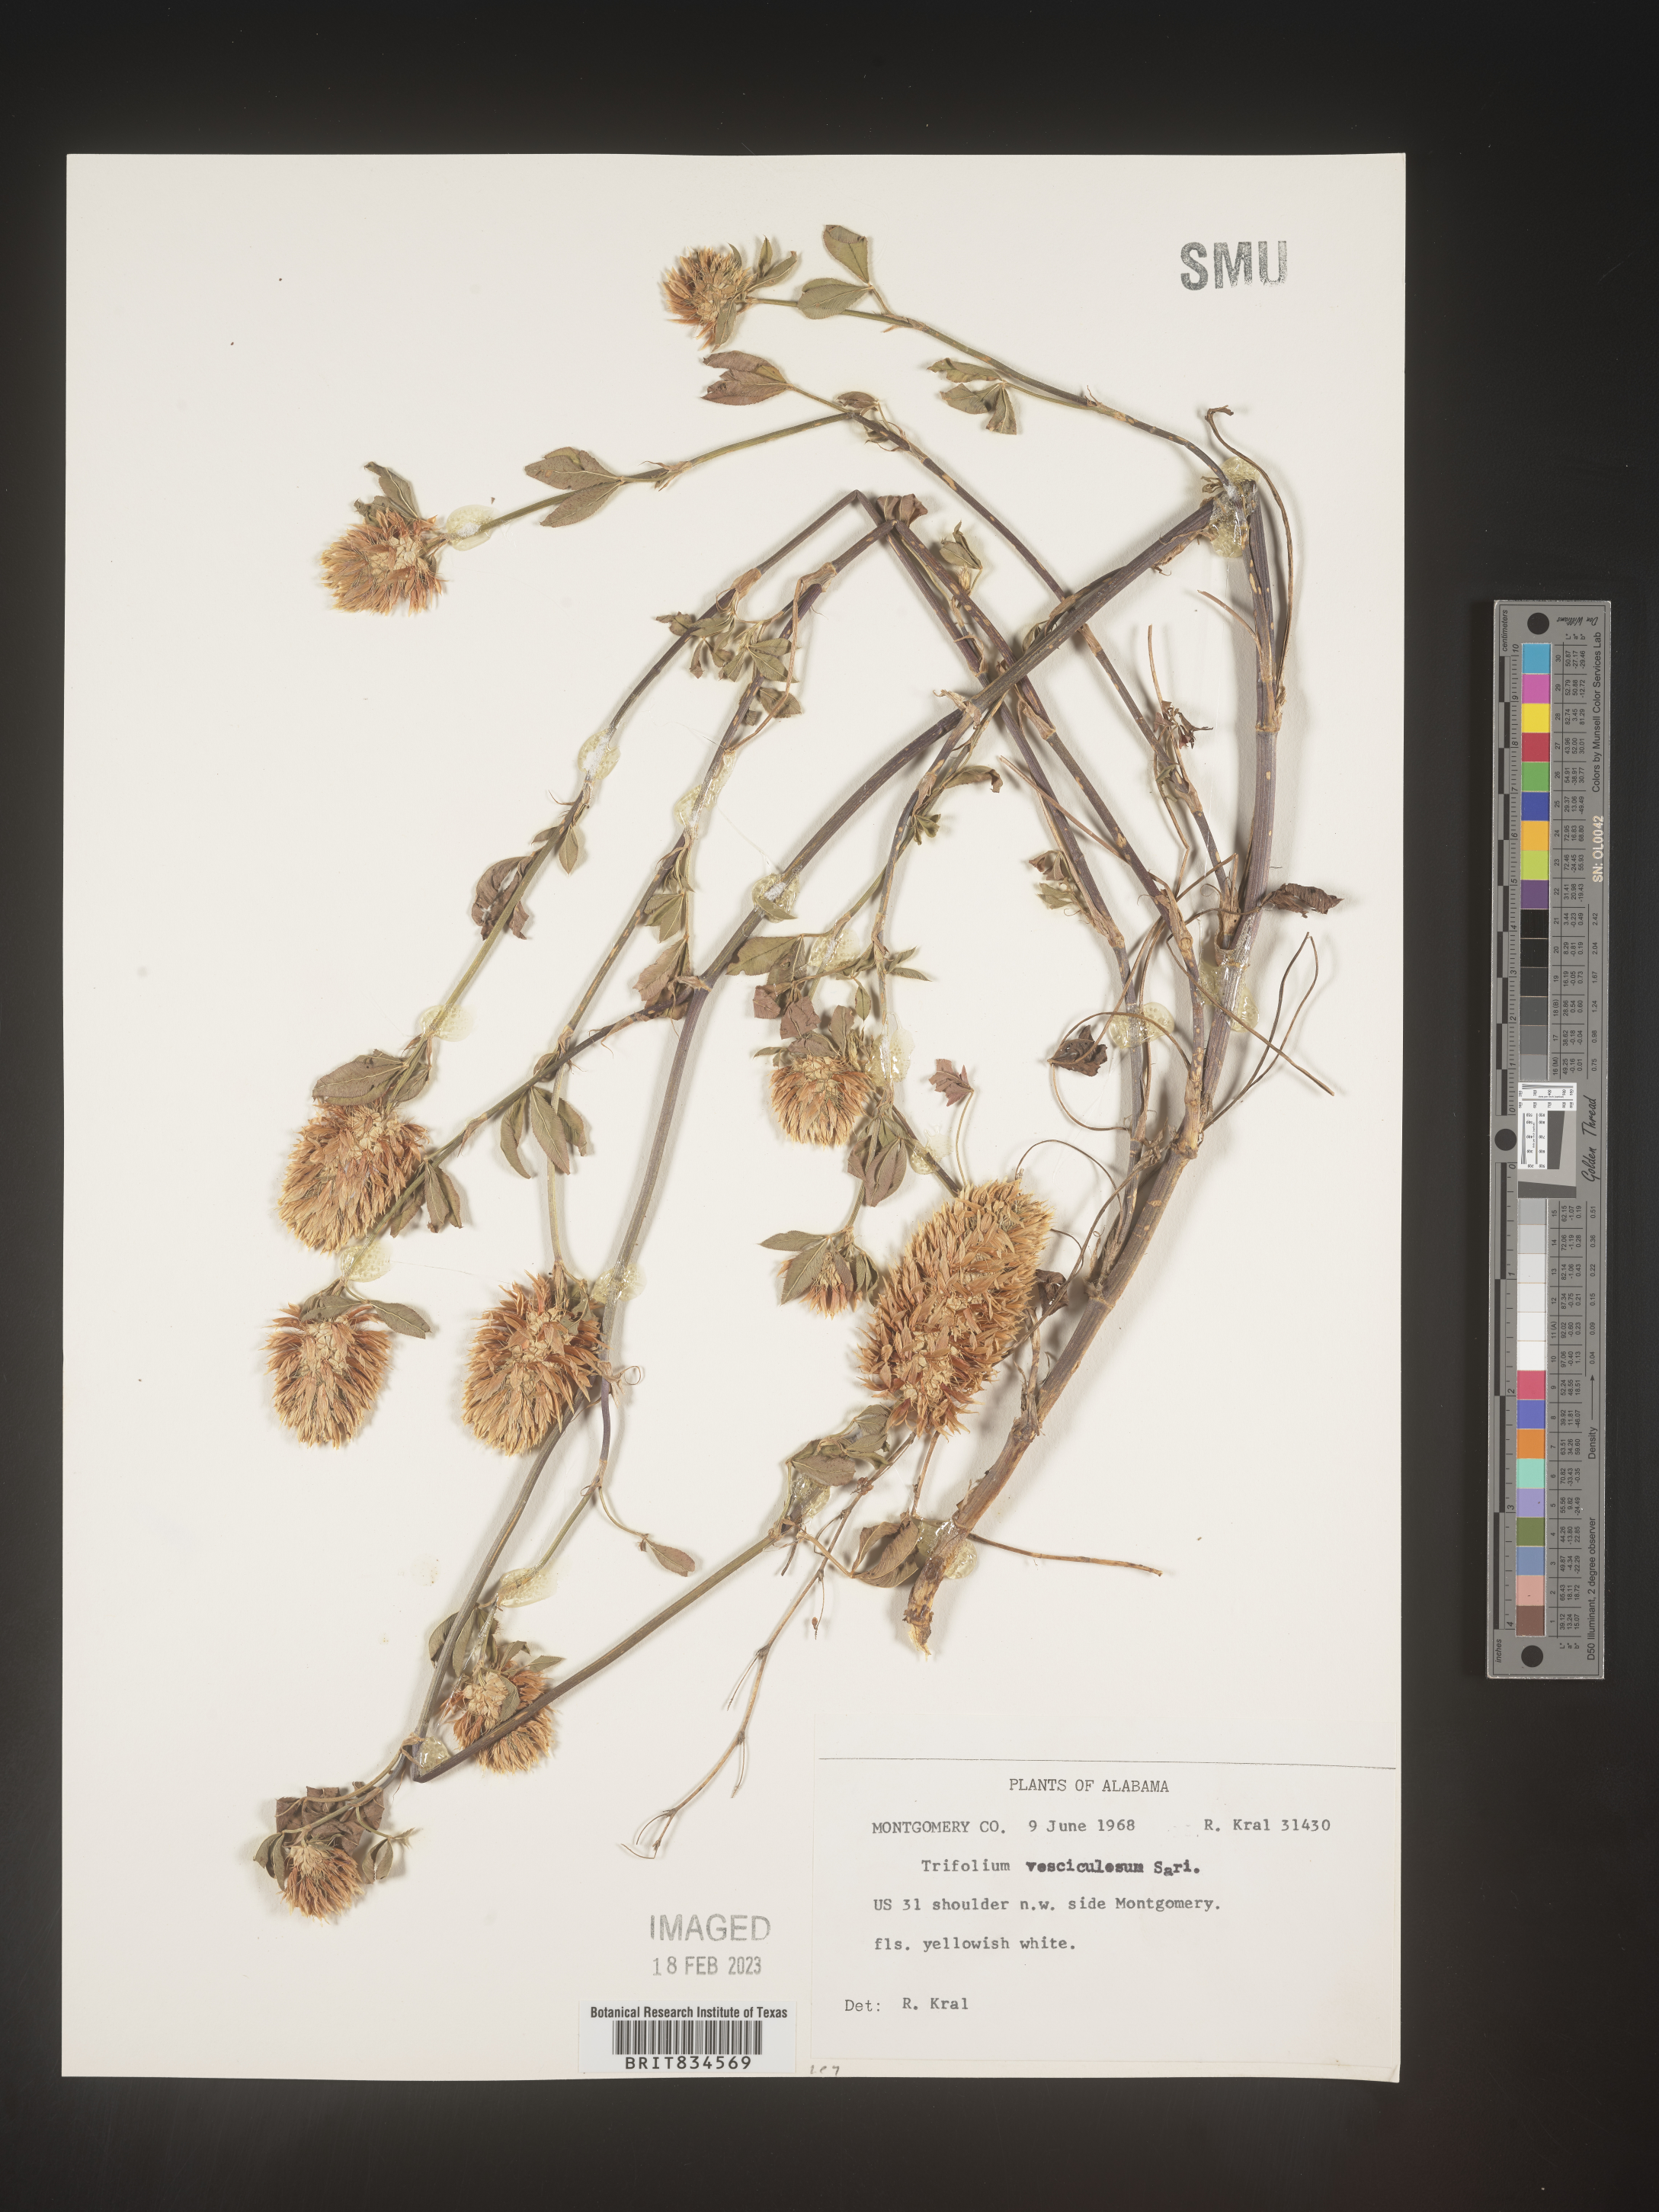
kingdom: Plantae
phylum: Tracheophyta
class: Magnoliopsida
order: Fabales
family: Fabaceae
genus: Trifolium
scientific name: Trifolium
